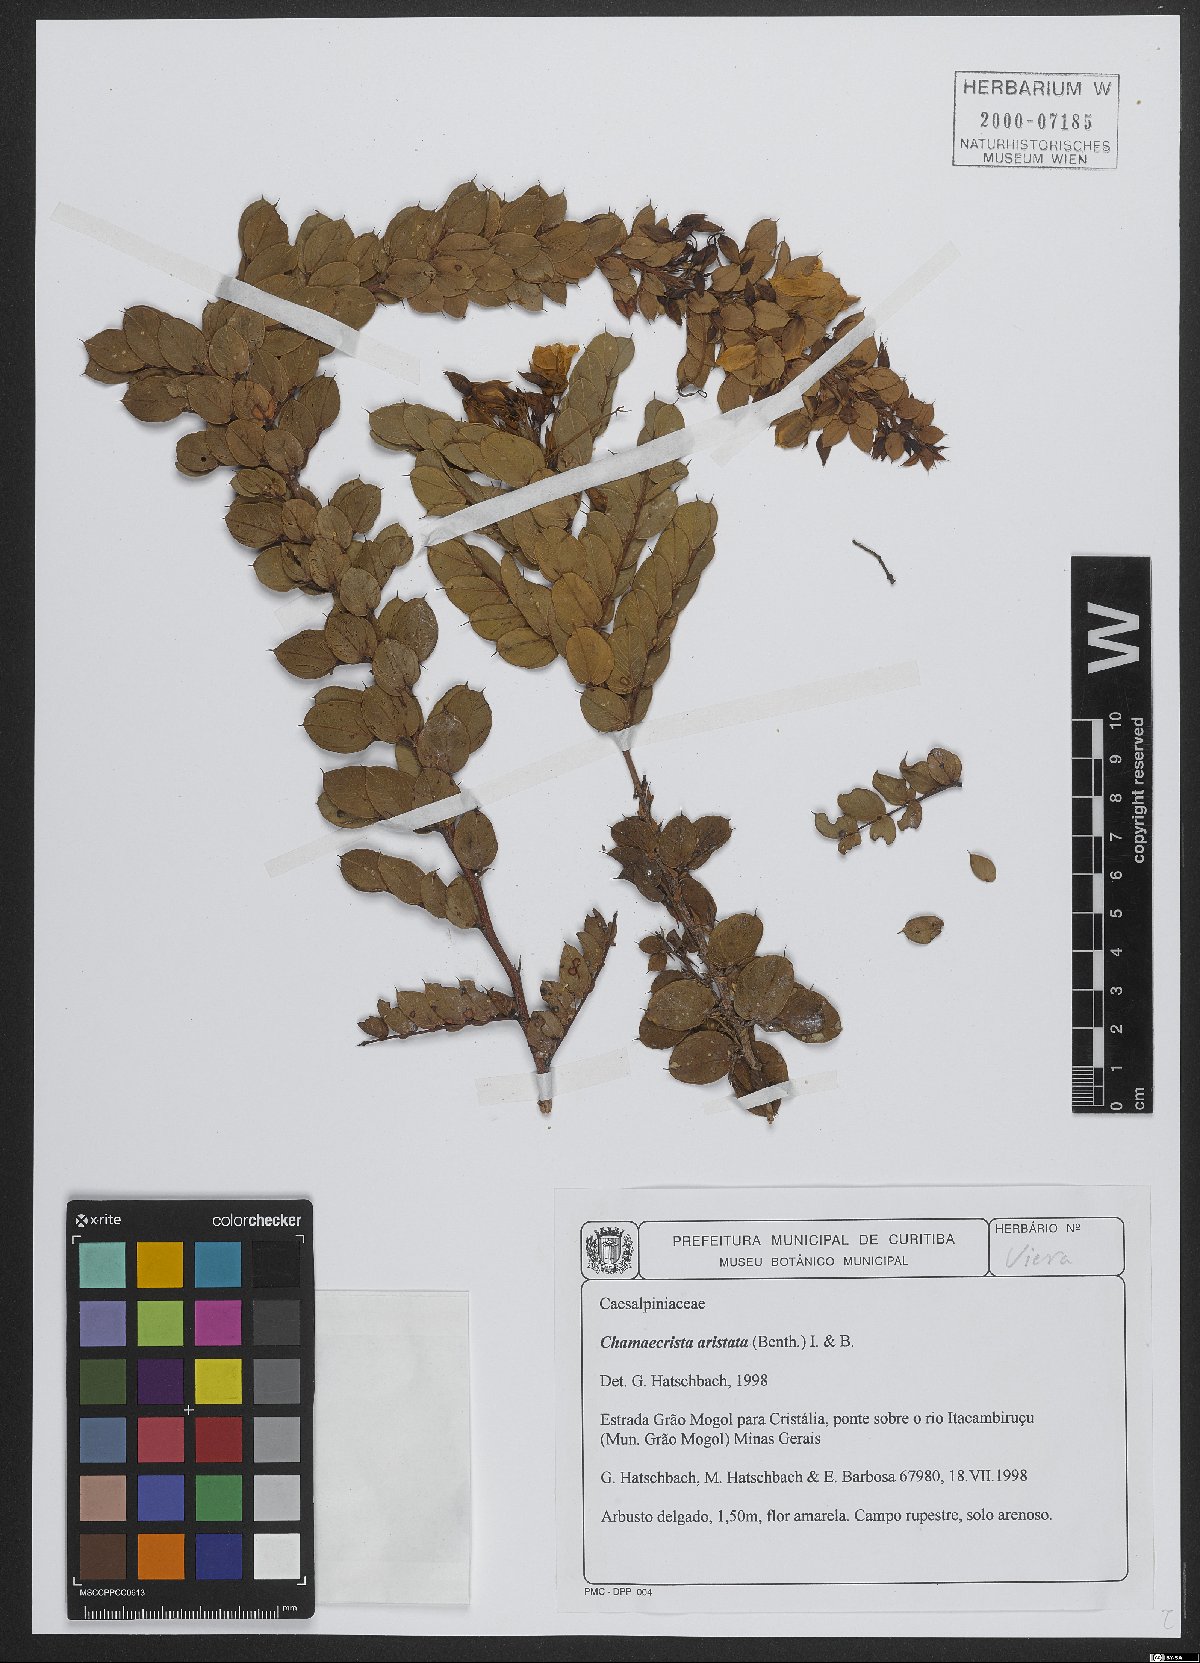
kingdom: Plantae
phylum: Tracheophyta
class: Magnoliopsida
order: Fabales
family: Fabaceae
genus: Chamaecrista
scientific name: Chamaecrista aristata
